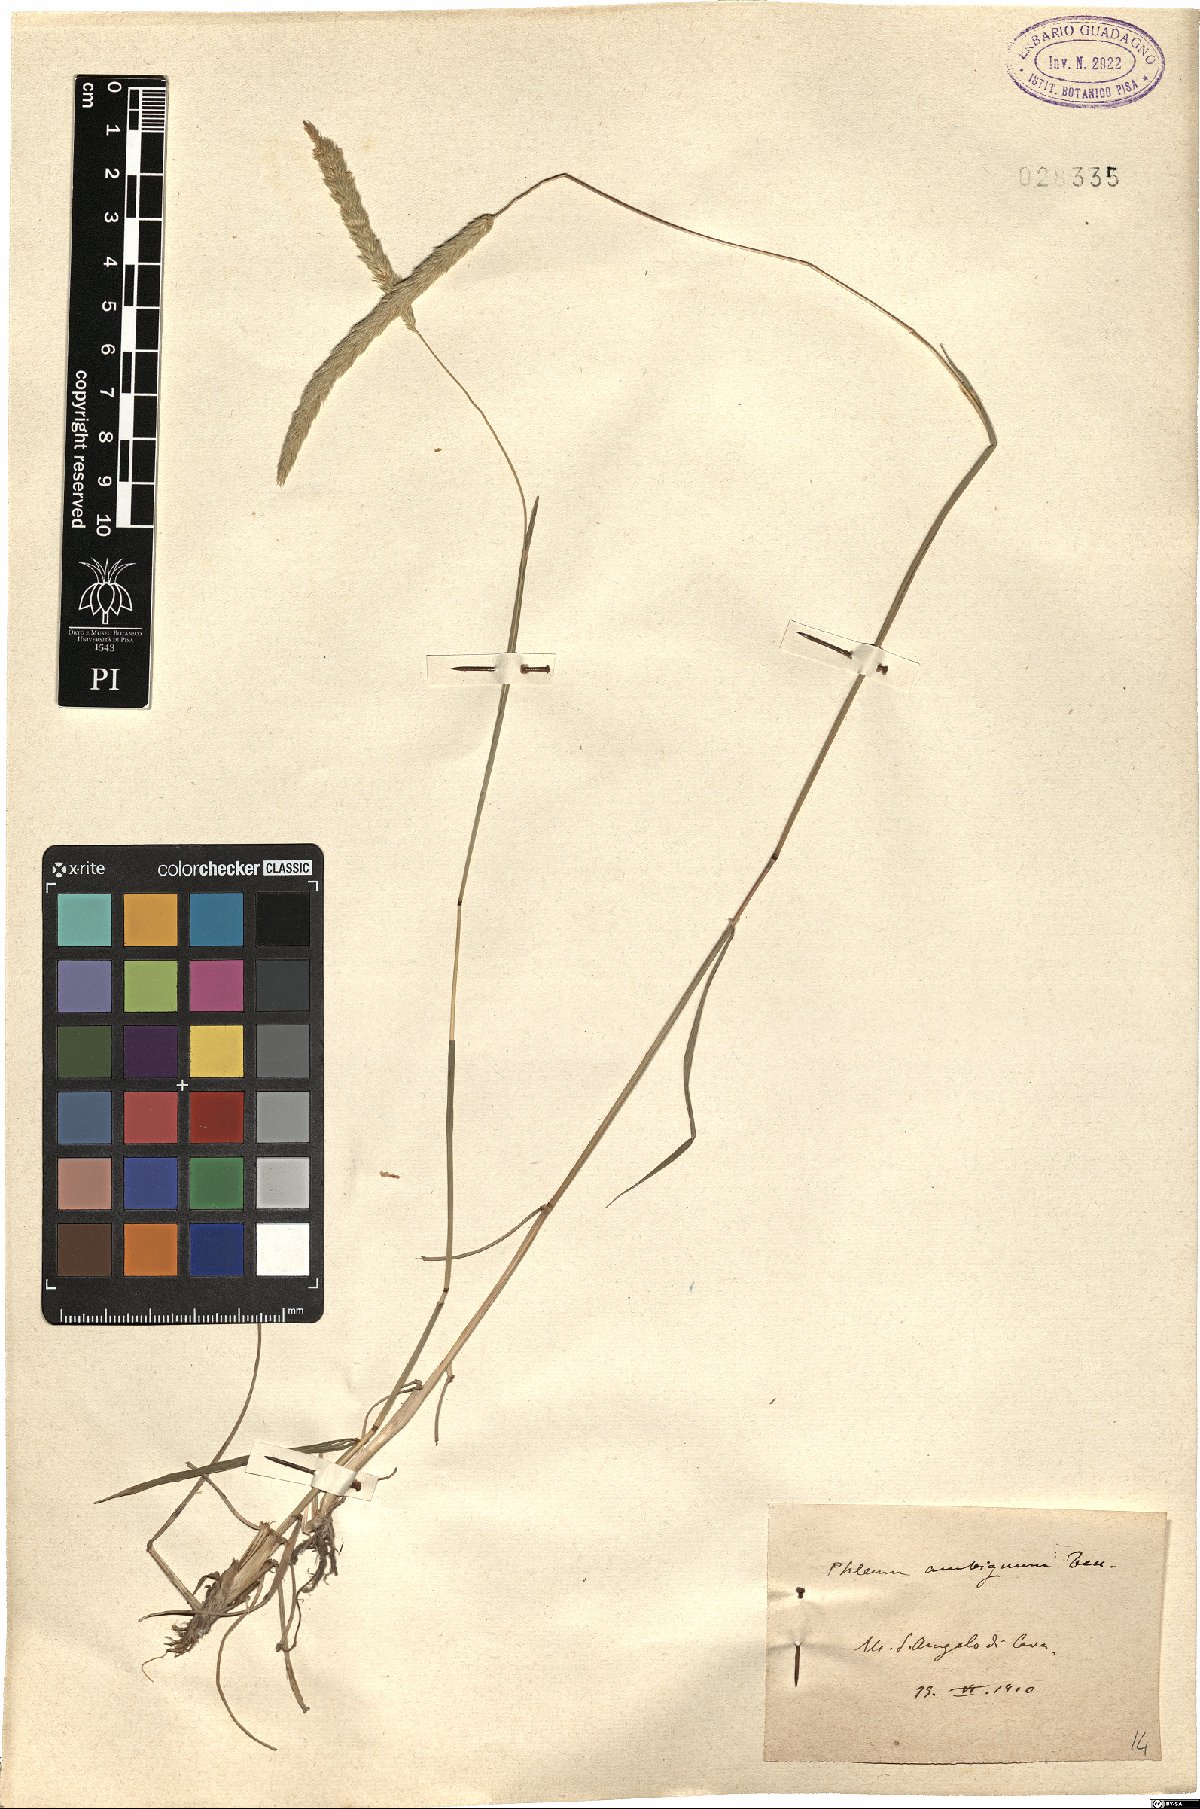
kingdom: Plantae
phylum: Tracheophyta
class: Liliopsida
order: Poales
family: Poaceae
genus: Phleum
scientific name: Phleum hirsutum
